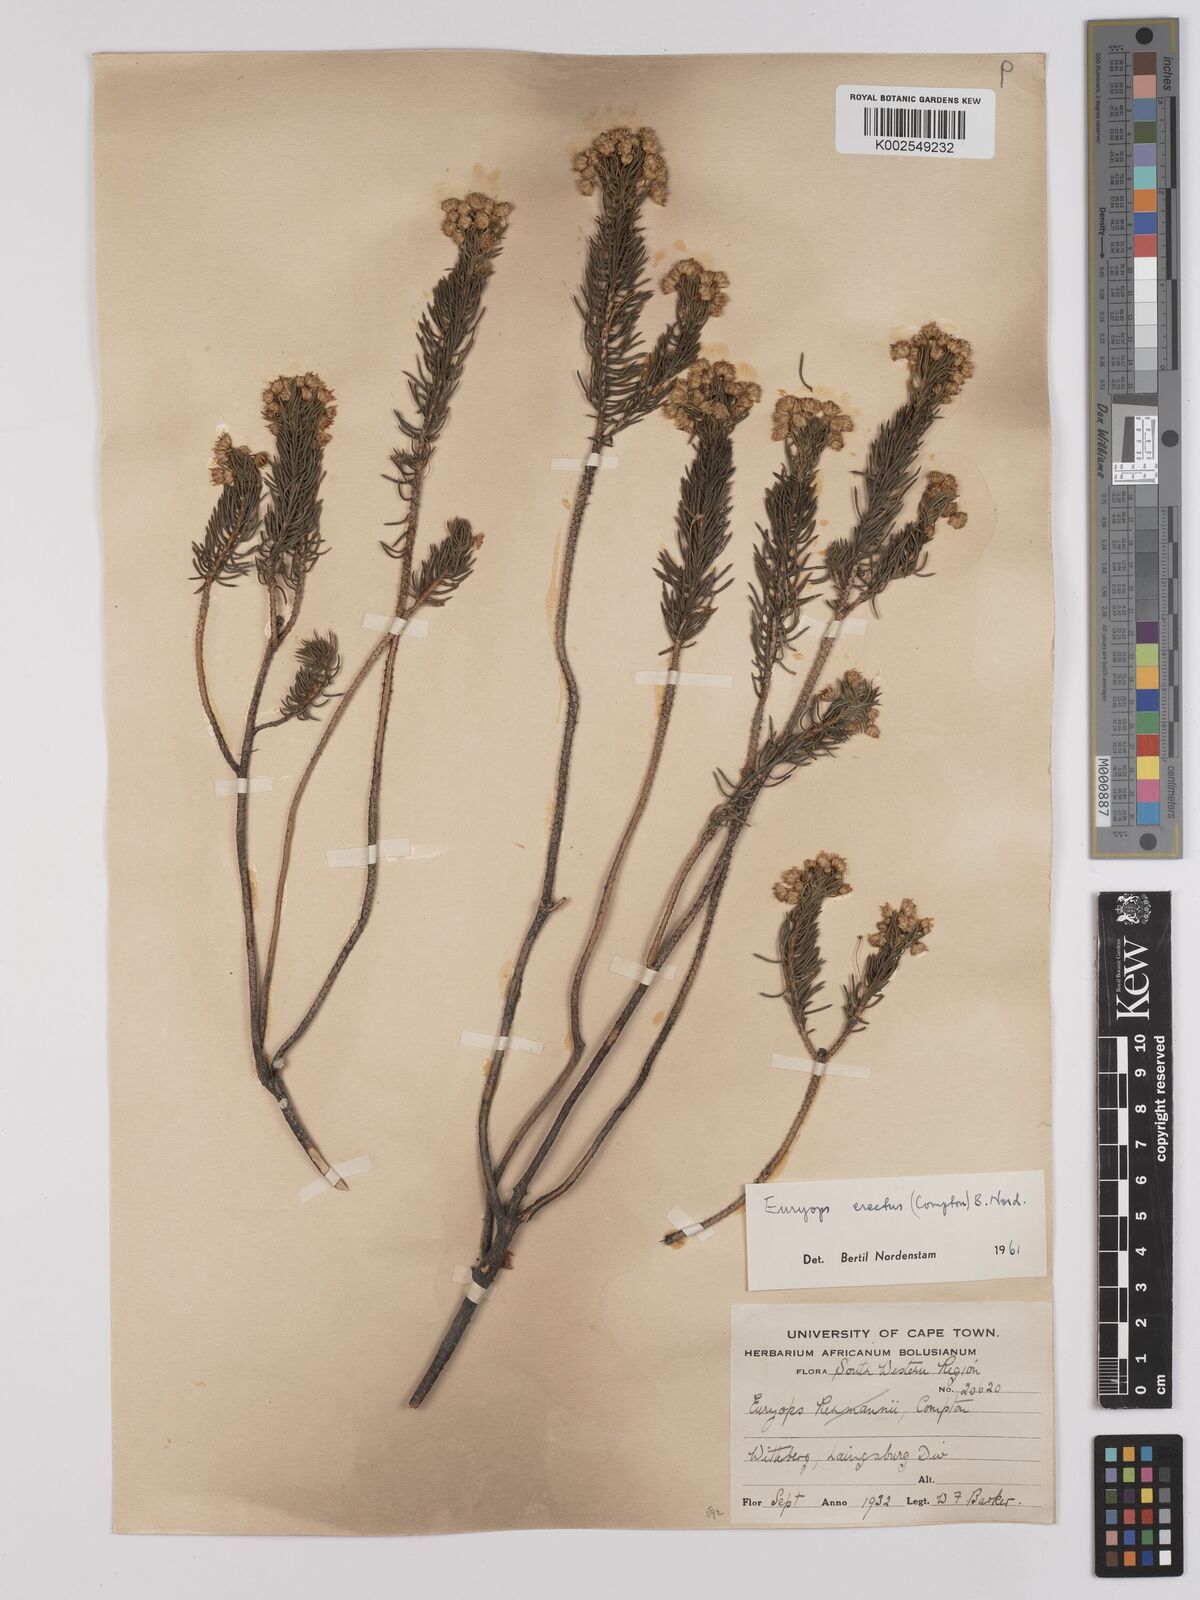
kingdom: Plantae
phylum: Tracheophyta
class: Magnoliopsida
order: Asterales
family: Asteraceae
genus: Euryops
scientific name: Euryops erectus
